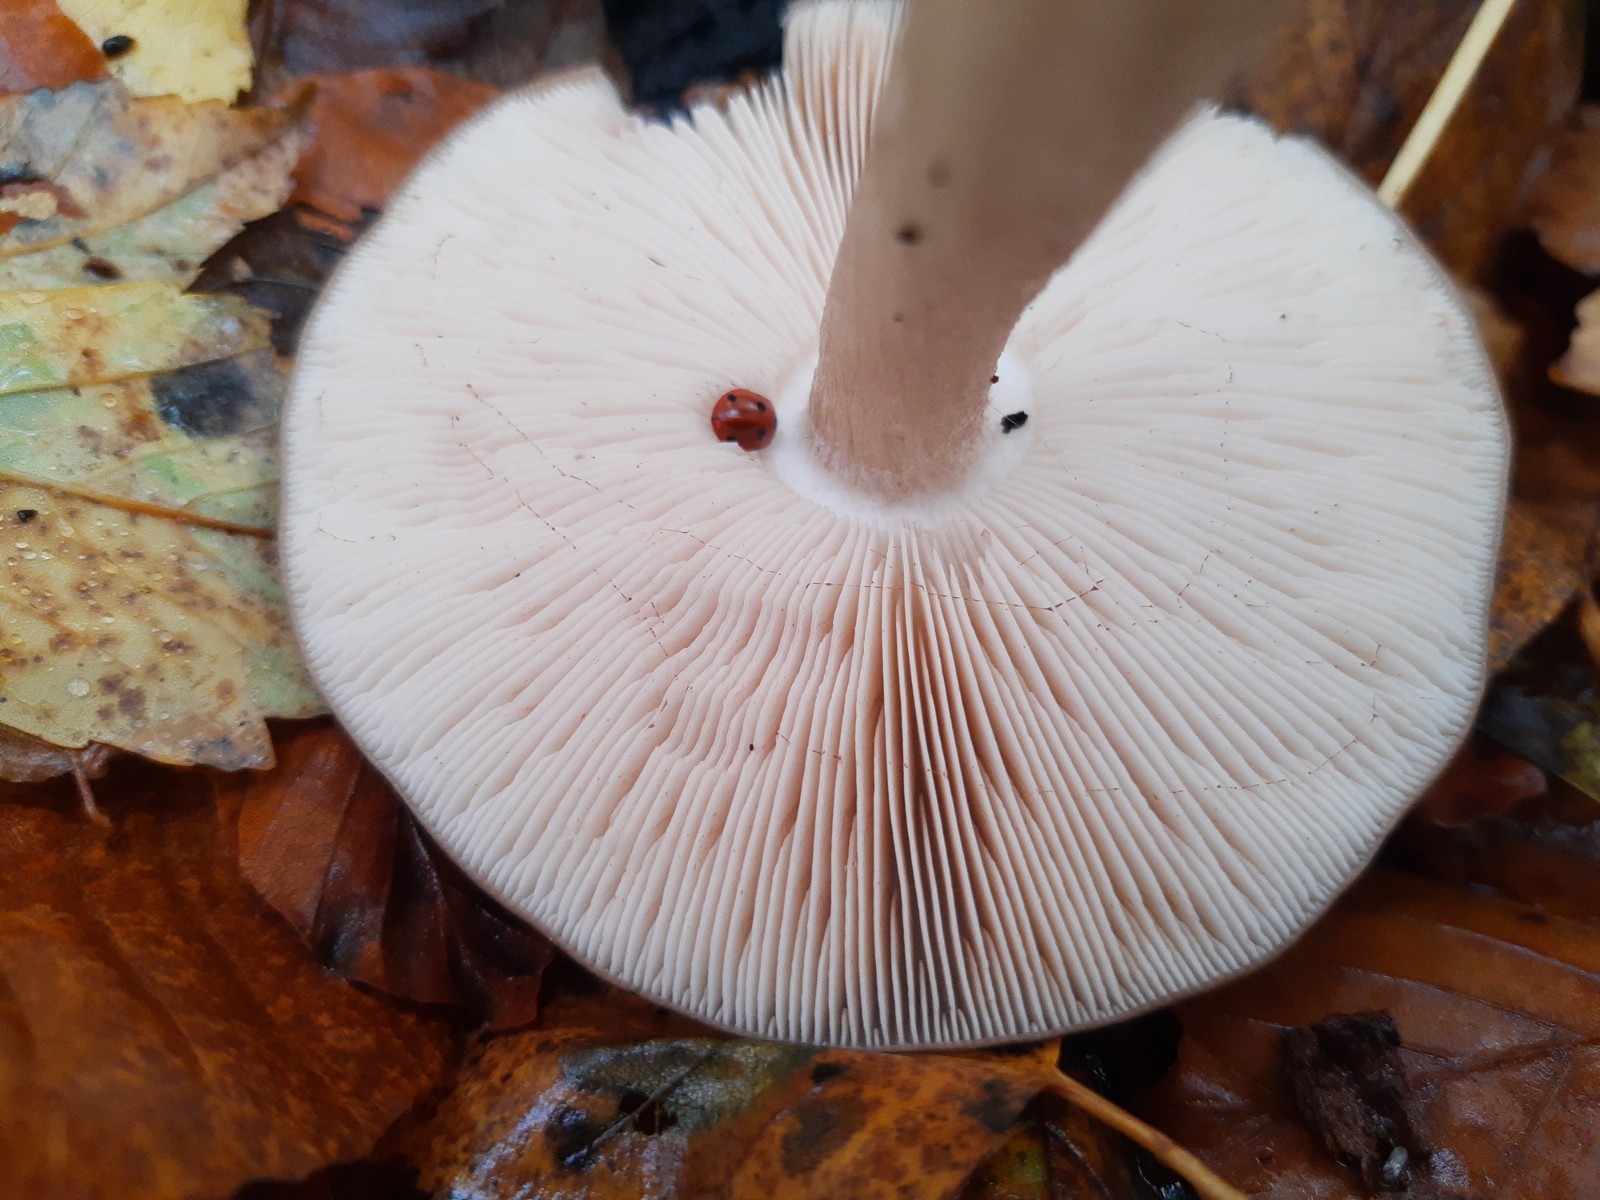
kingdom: Fungi
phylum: Basidiomycota
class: Agaricomycetes
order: Agaricales
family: Pluteaceae
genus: Pluteus
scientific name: Pluteus cervinus
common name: sodfarvet skærmhat
